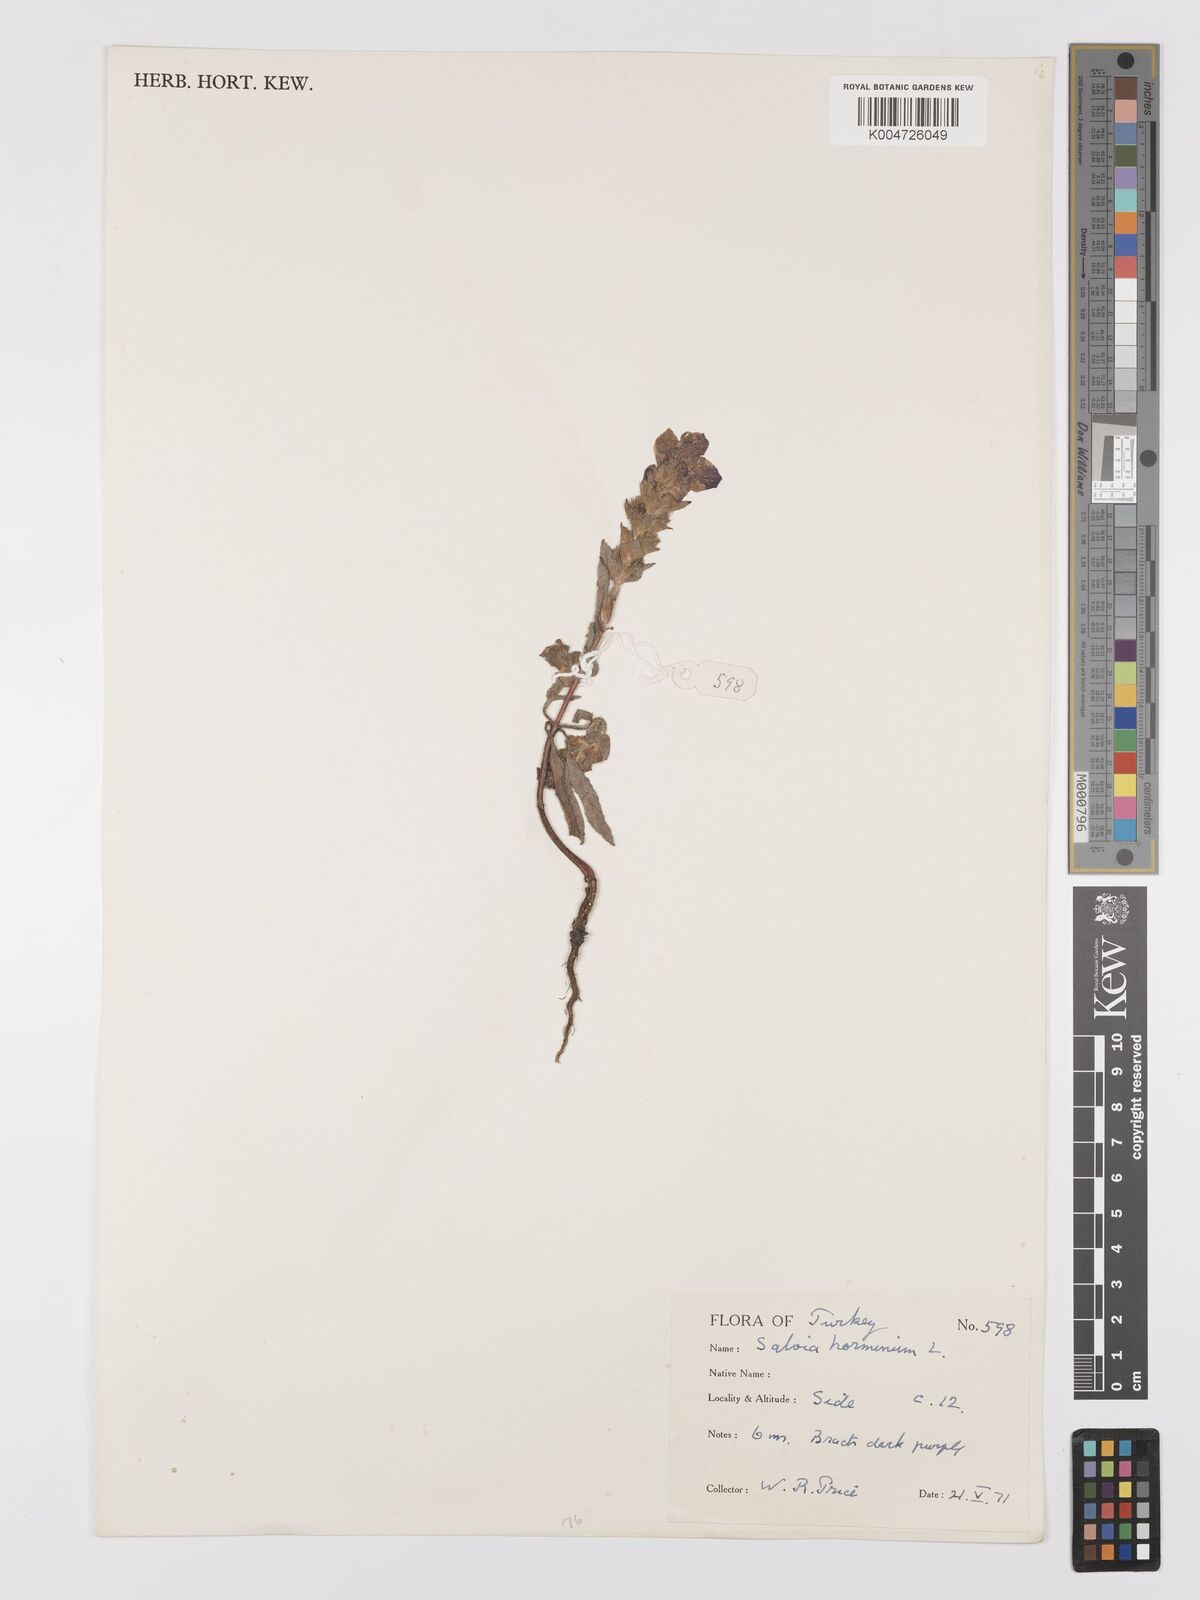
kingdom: Plantae
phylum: Tracheophyta
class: Magnoliopsida
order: Lamiales
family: Lamiaceae
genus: Salvia
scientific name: Salvia viridis
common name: Annual clary
